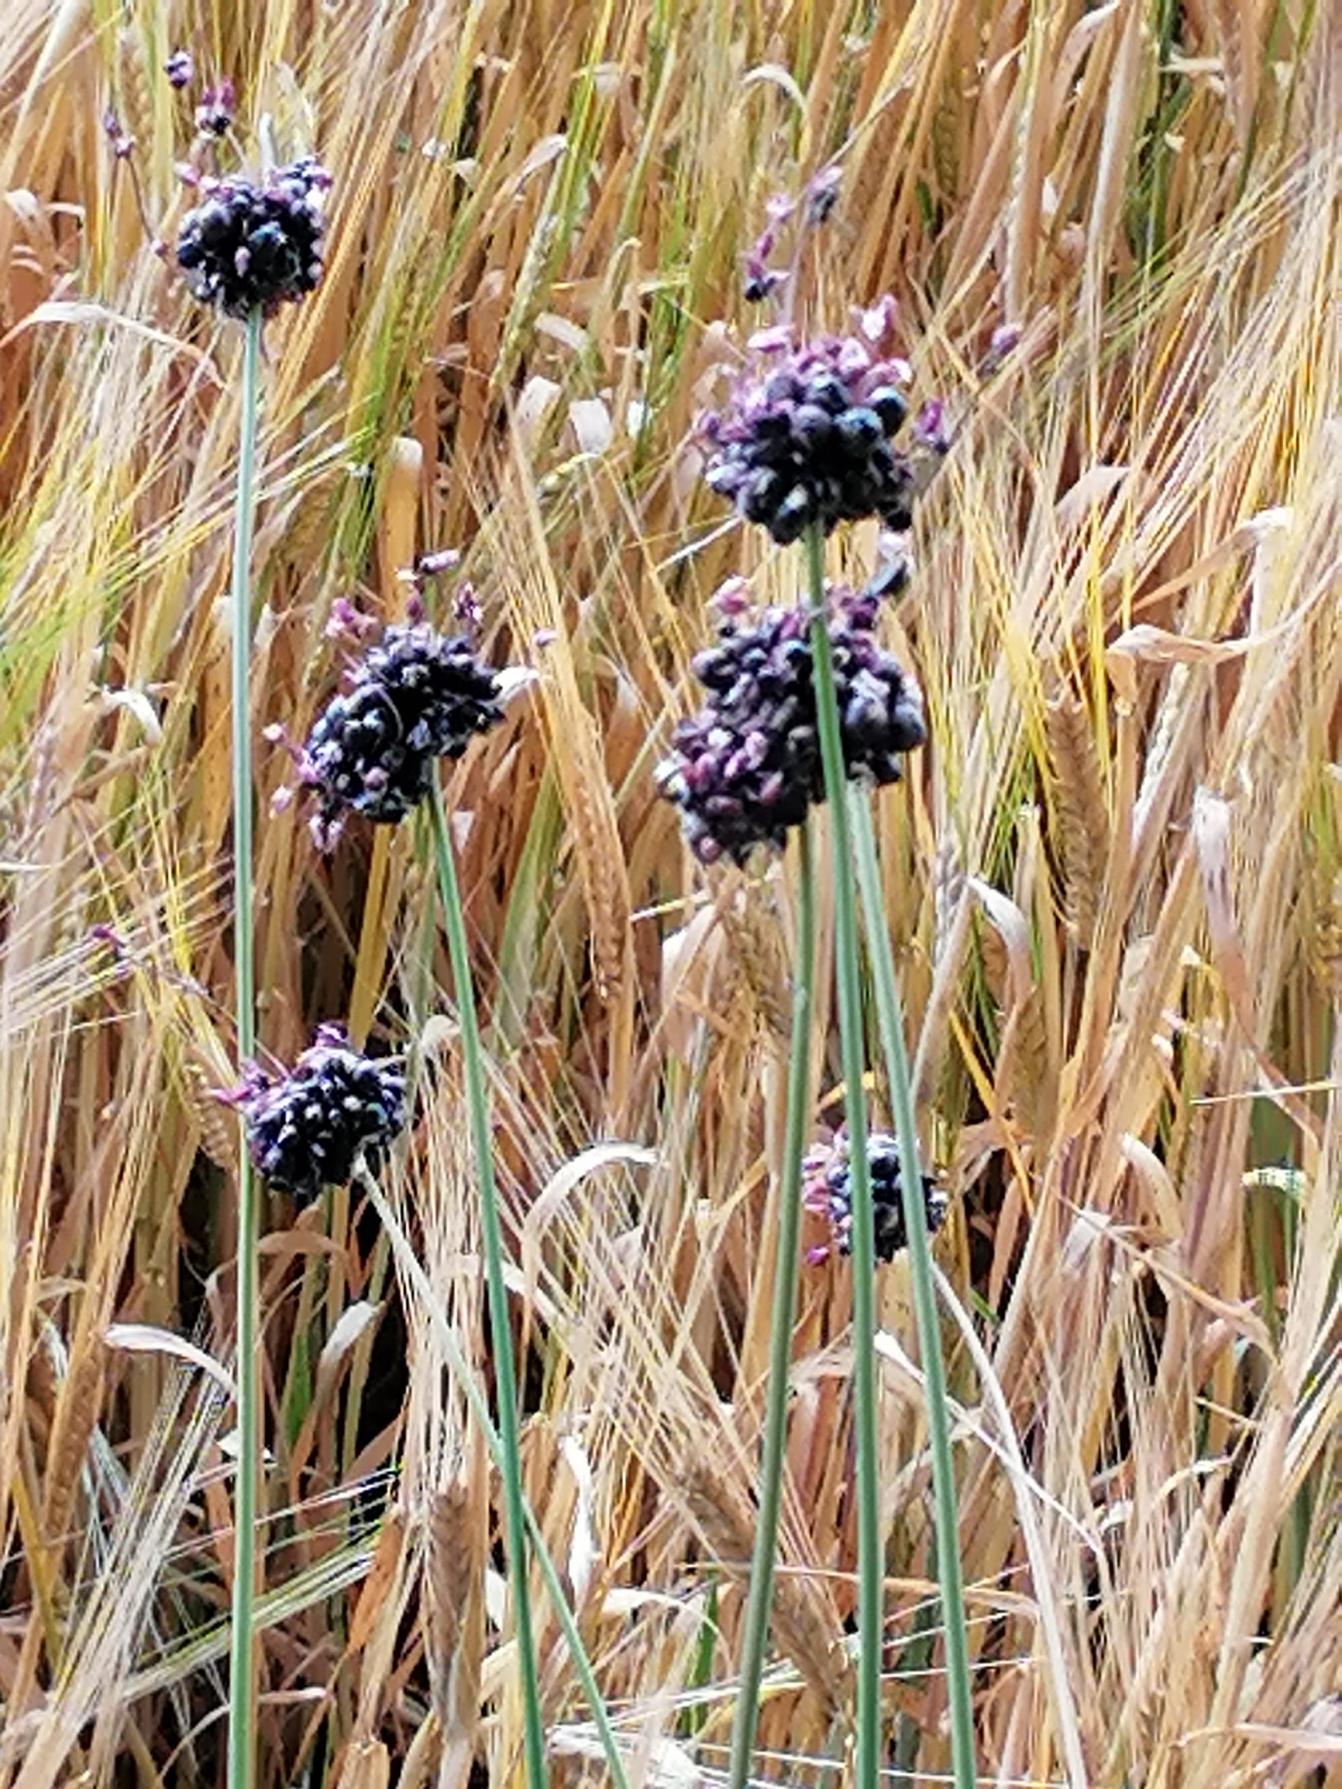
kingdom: Plantae
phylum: Tracheophyta
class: Liliopsida
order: Asparagales
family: Amaryllidaceae
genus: Allium
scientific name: Allium scorodoprasum
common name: Skov-løg
